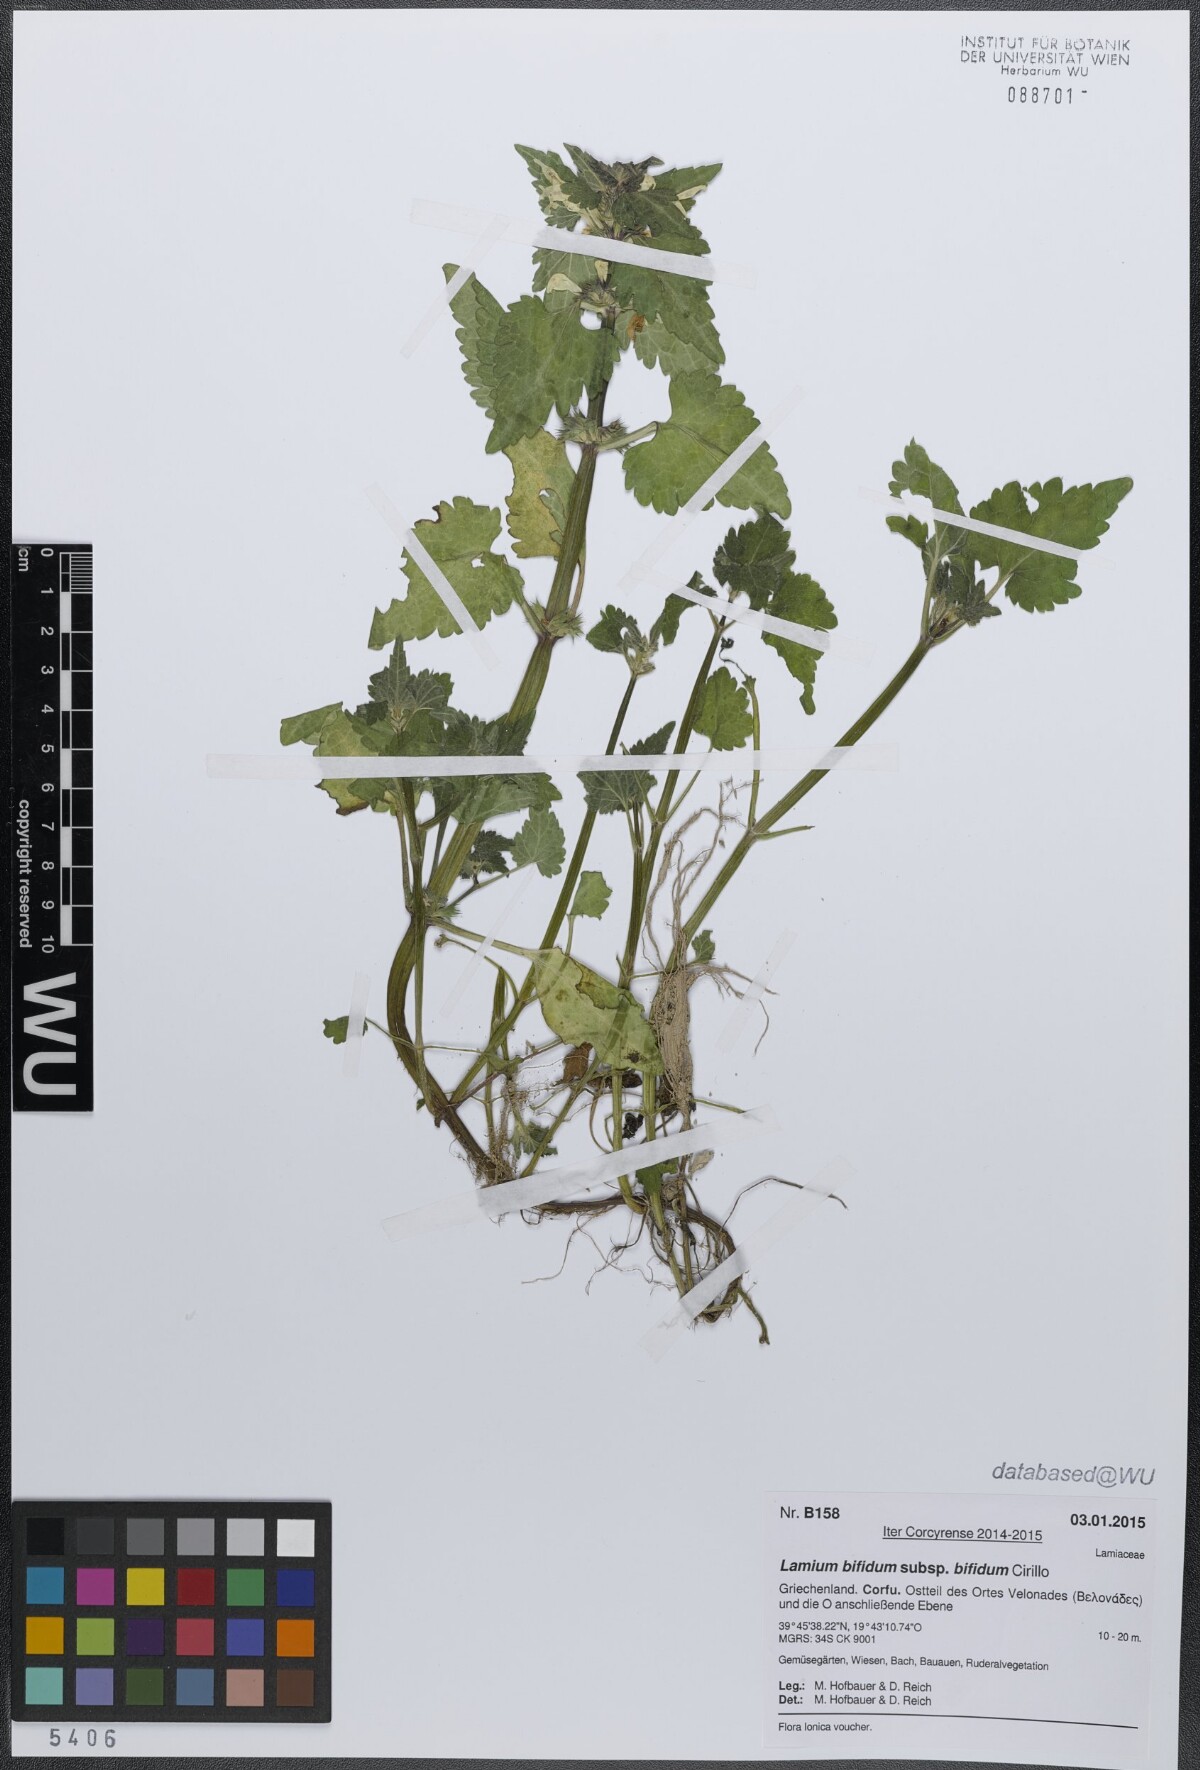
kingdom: Plantae
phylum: Tracheophyta
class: Magnoliopsida
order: Lamiales
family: Lamiaceae
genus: Lamium
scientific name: Lamium bifidum
